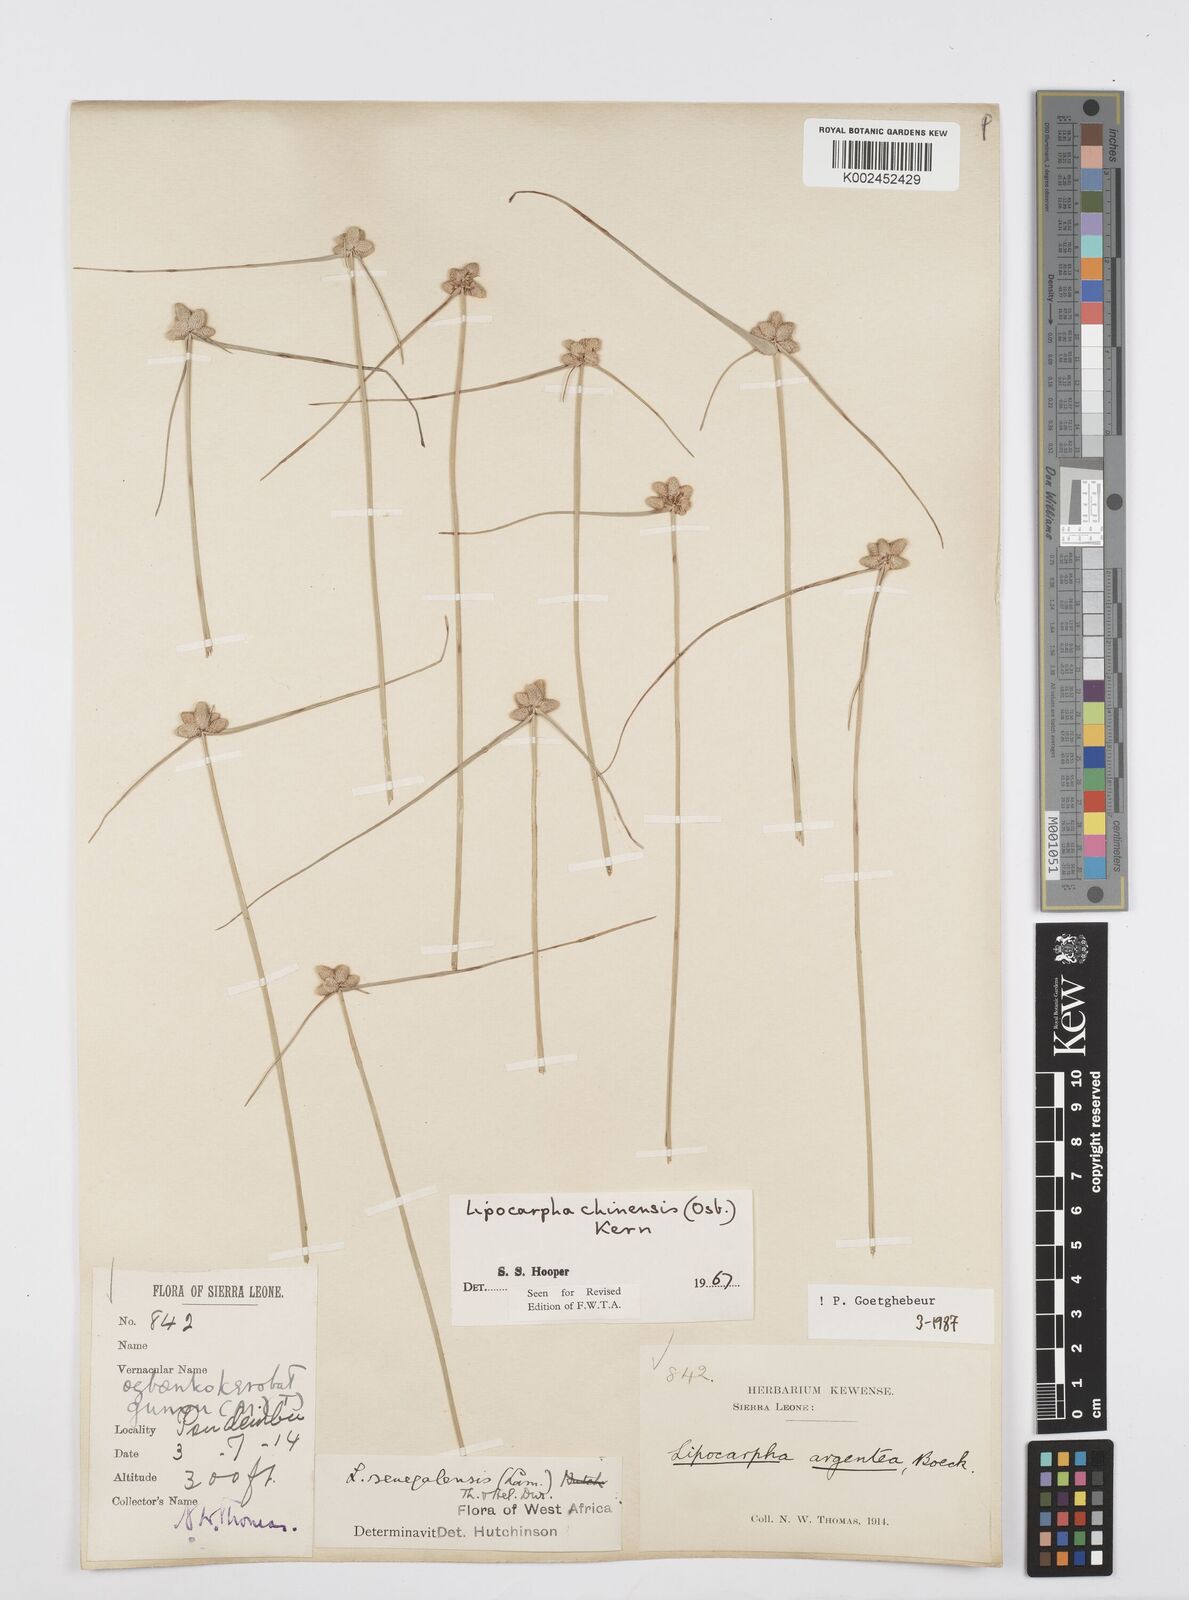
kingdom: Plantae
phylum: Tracheophyta
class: Liliopsida
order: Poales
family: Cyperaceae
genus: Cyperus
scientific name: Cyperus albescens
